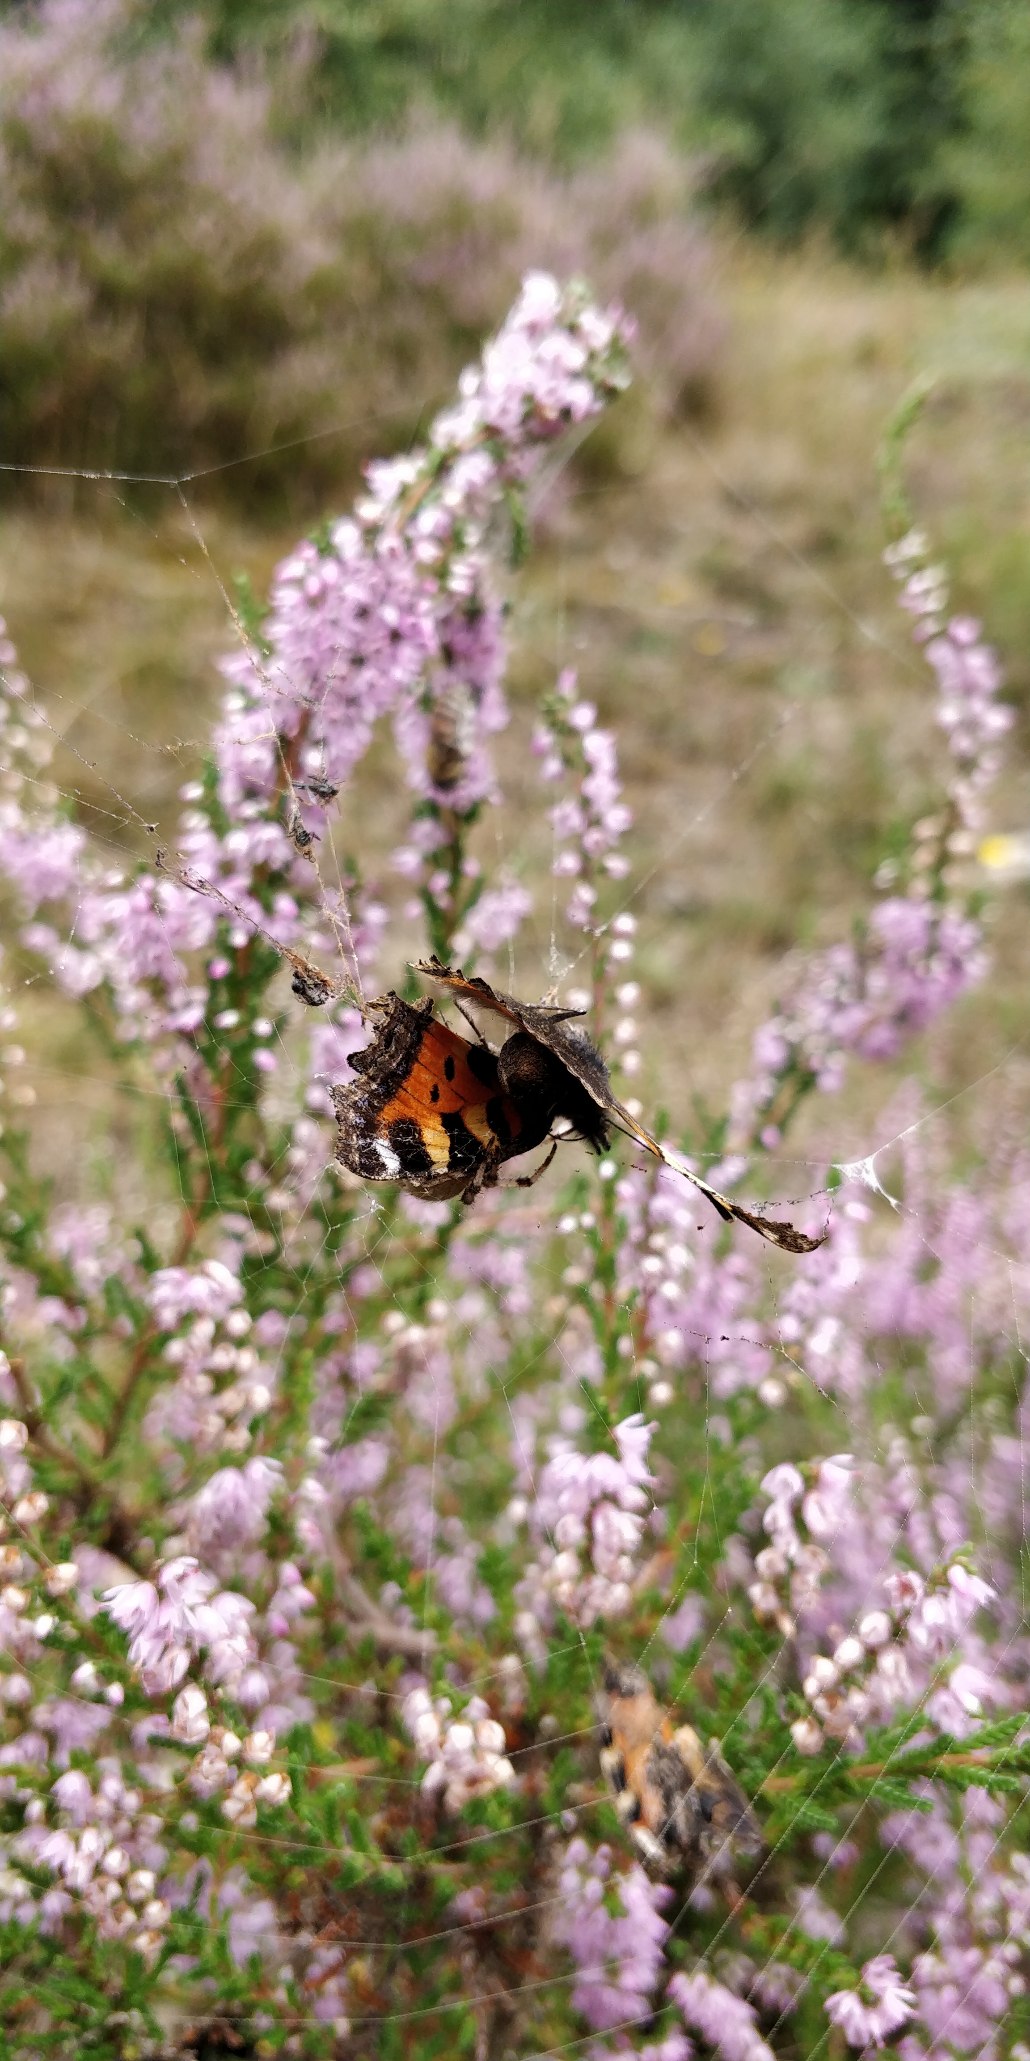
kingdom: Animalia
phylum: Arthropoda
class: Insecta
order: Lepidoptera
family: Nymphalidae
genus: Aglais
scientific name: Aglais urticae
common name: Nældens takvinge
